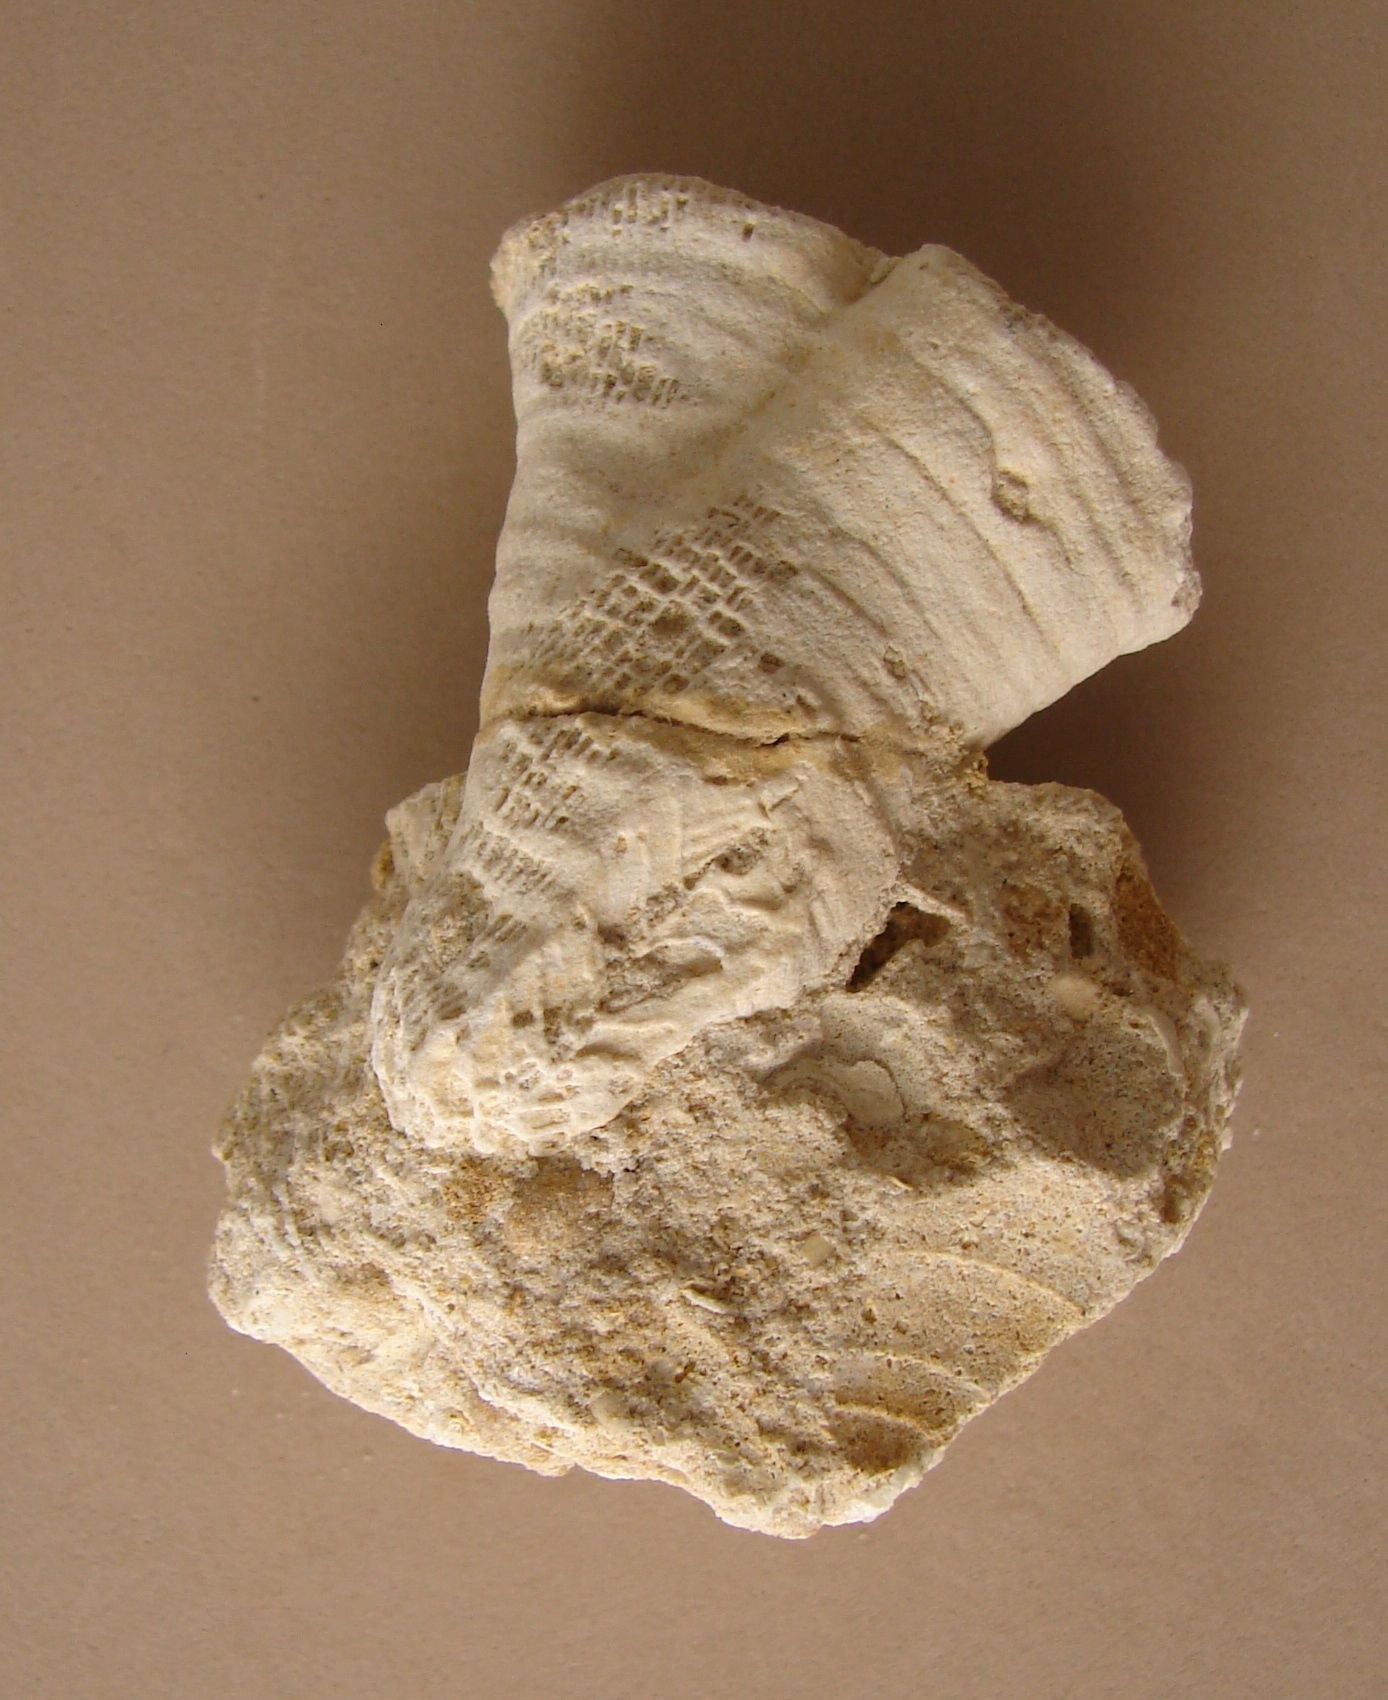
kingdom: Animalia
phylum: Cnidaria
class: Anthozoa
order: Scleractinia
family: Stylophyllidae
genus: Phacelostylophyllum
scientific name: Phacelostylophyllum
